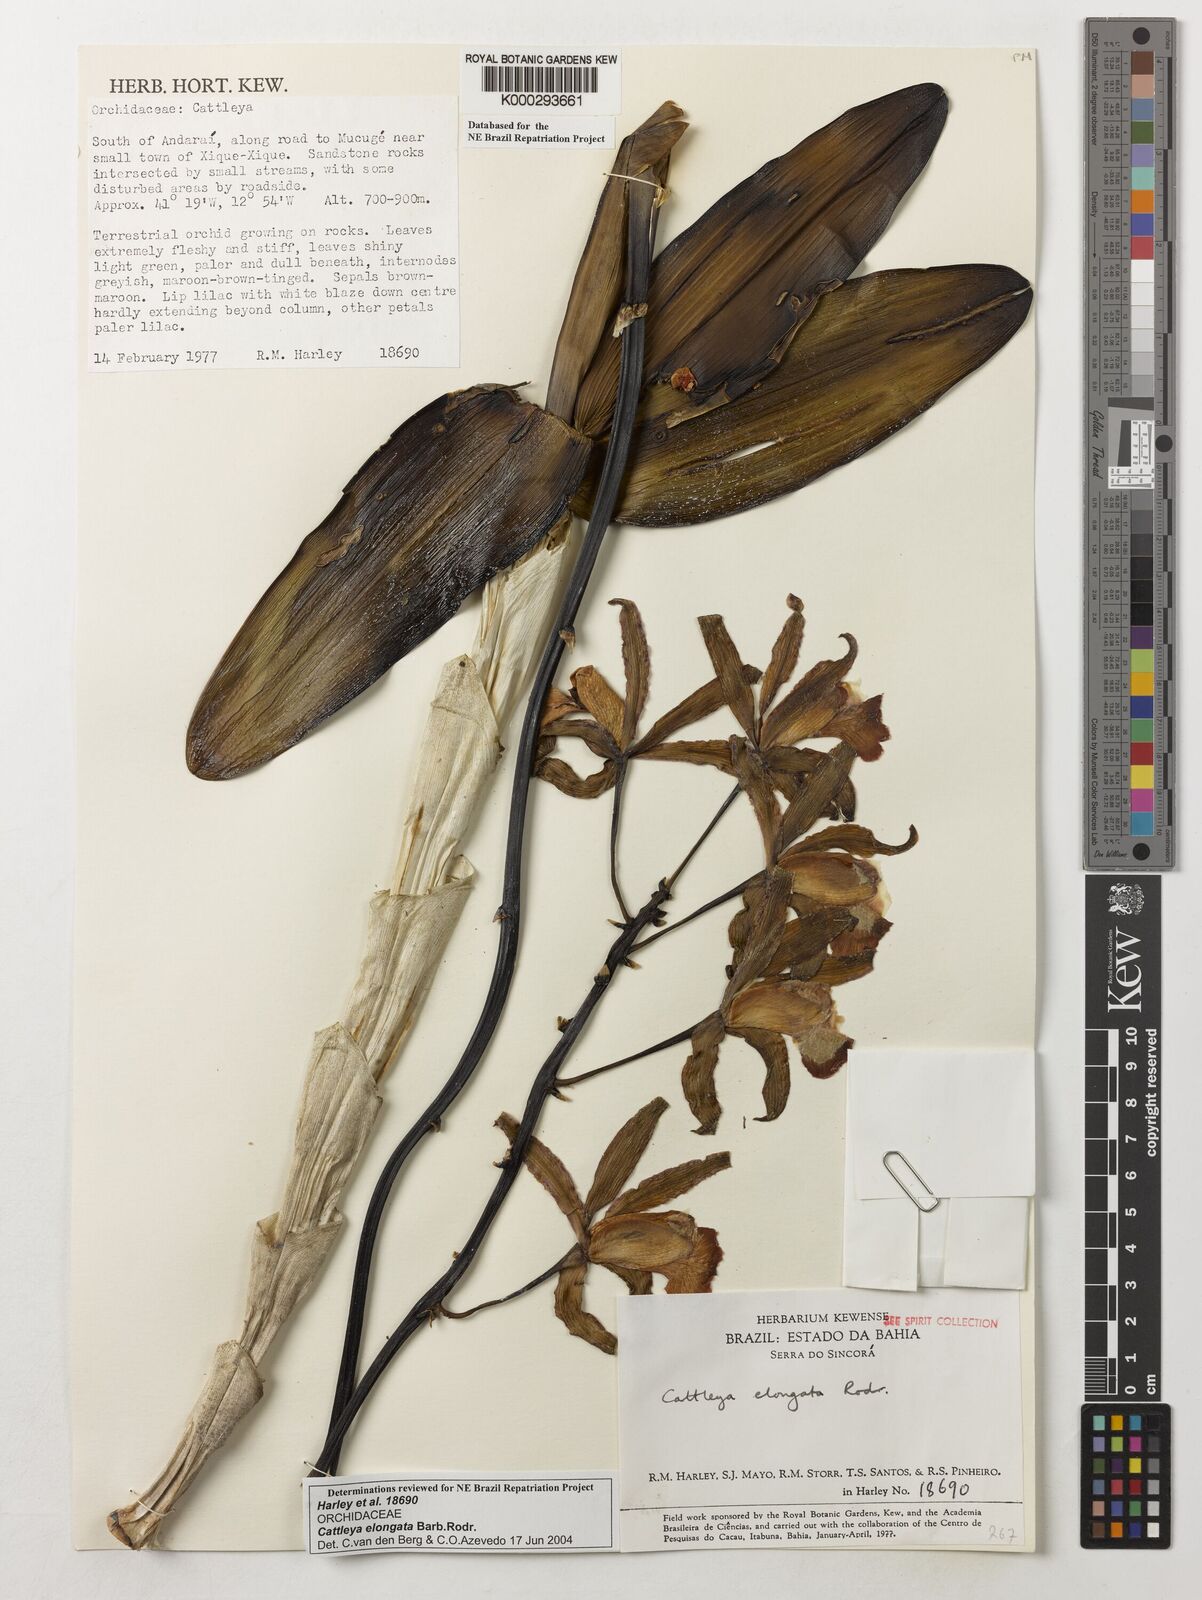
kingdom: Plantae
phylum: Tracheophyta
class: Liliopsida
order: Asparagales
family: Orchidaceae
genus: Cattleya
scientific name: Cattleya elongata
